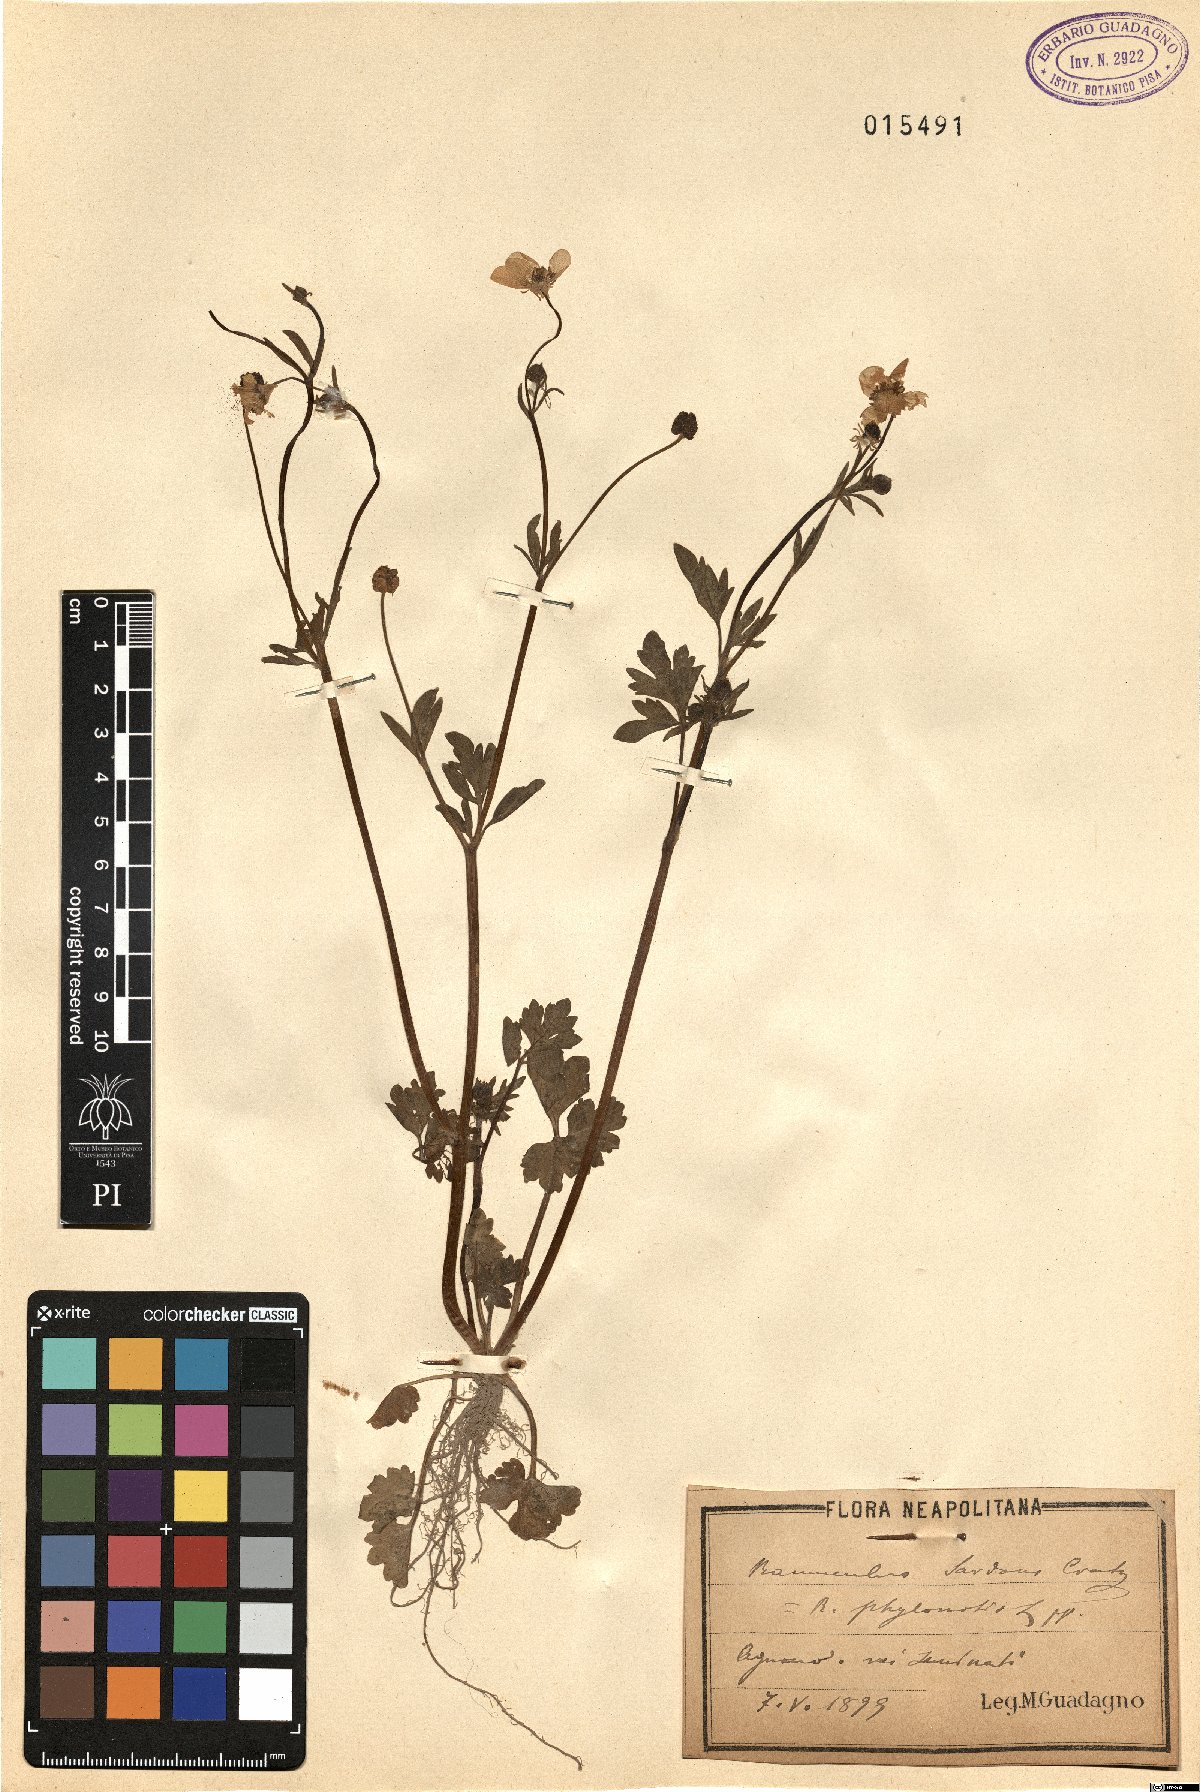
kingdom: Plantae
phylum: Tracheophyta
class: Magnoliopsida
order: Ranunculales
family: Ranunculaceae
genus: Ranunculus
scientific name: Ranunculus sardous
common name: Hairy buttercup
